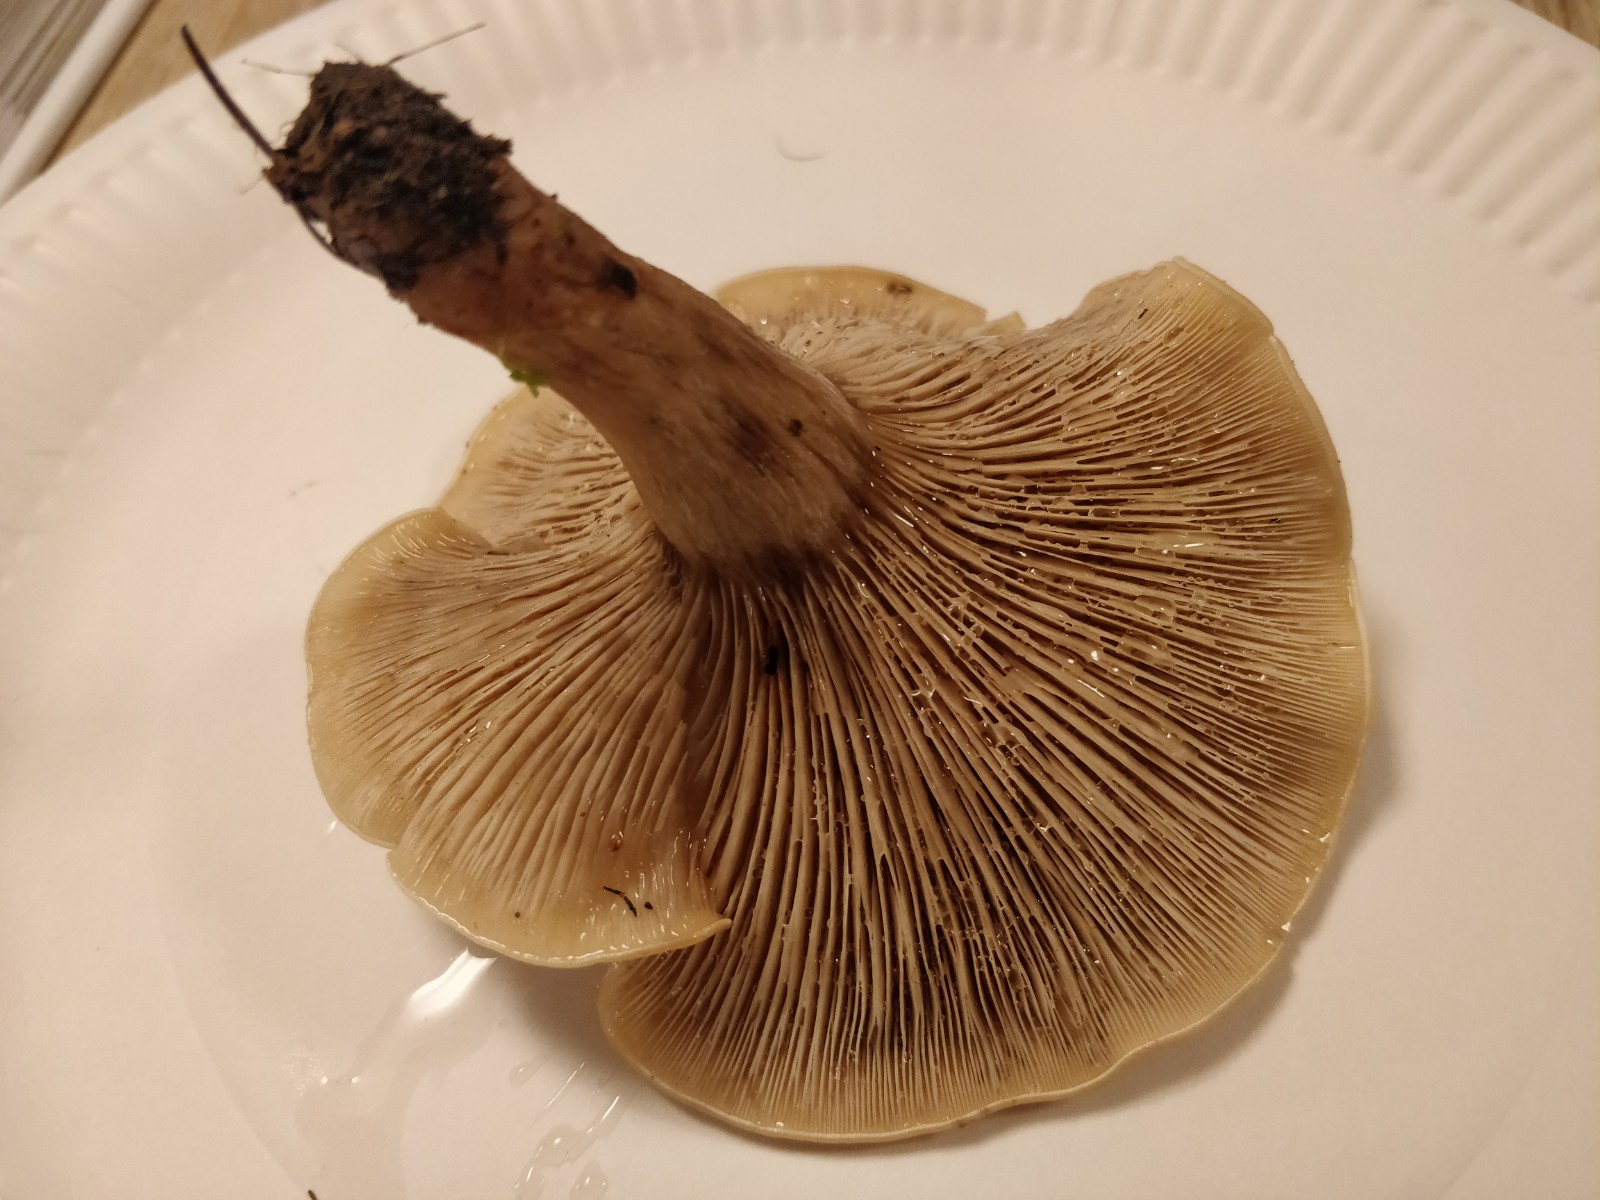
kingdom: Fungi
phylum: Basidiomycota
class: Agaricomycetes
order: Agaricales
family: Tricholomataceae
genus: Lepista
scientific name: Lepista panaeolus
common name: marmoreret hekseringshat
